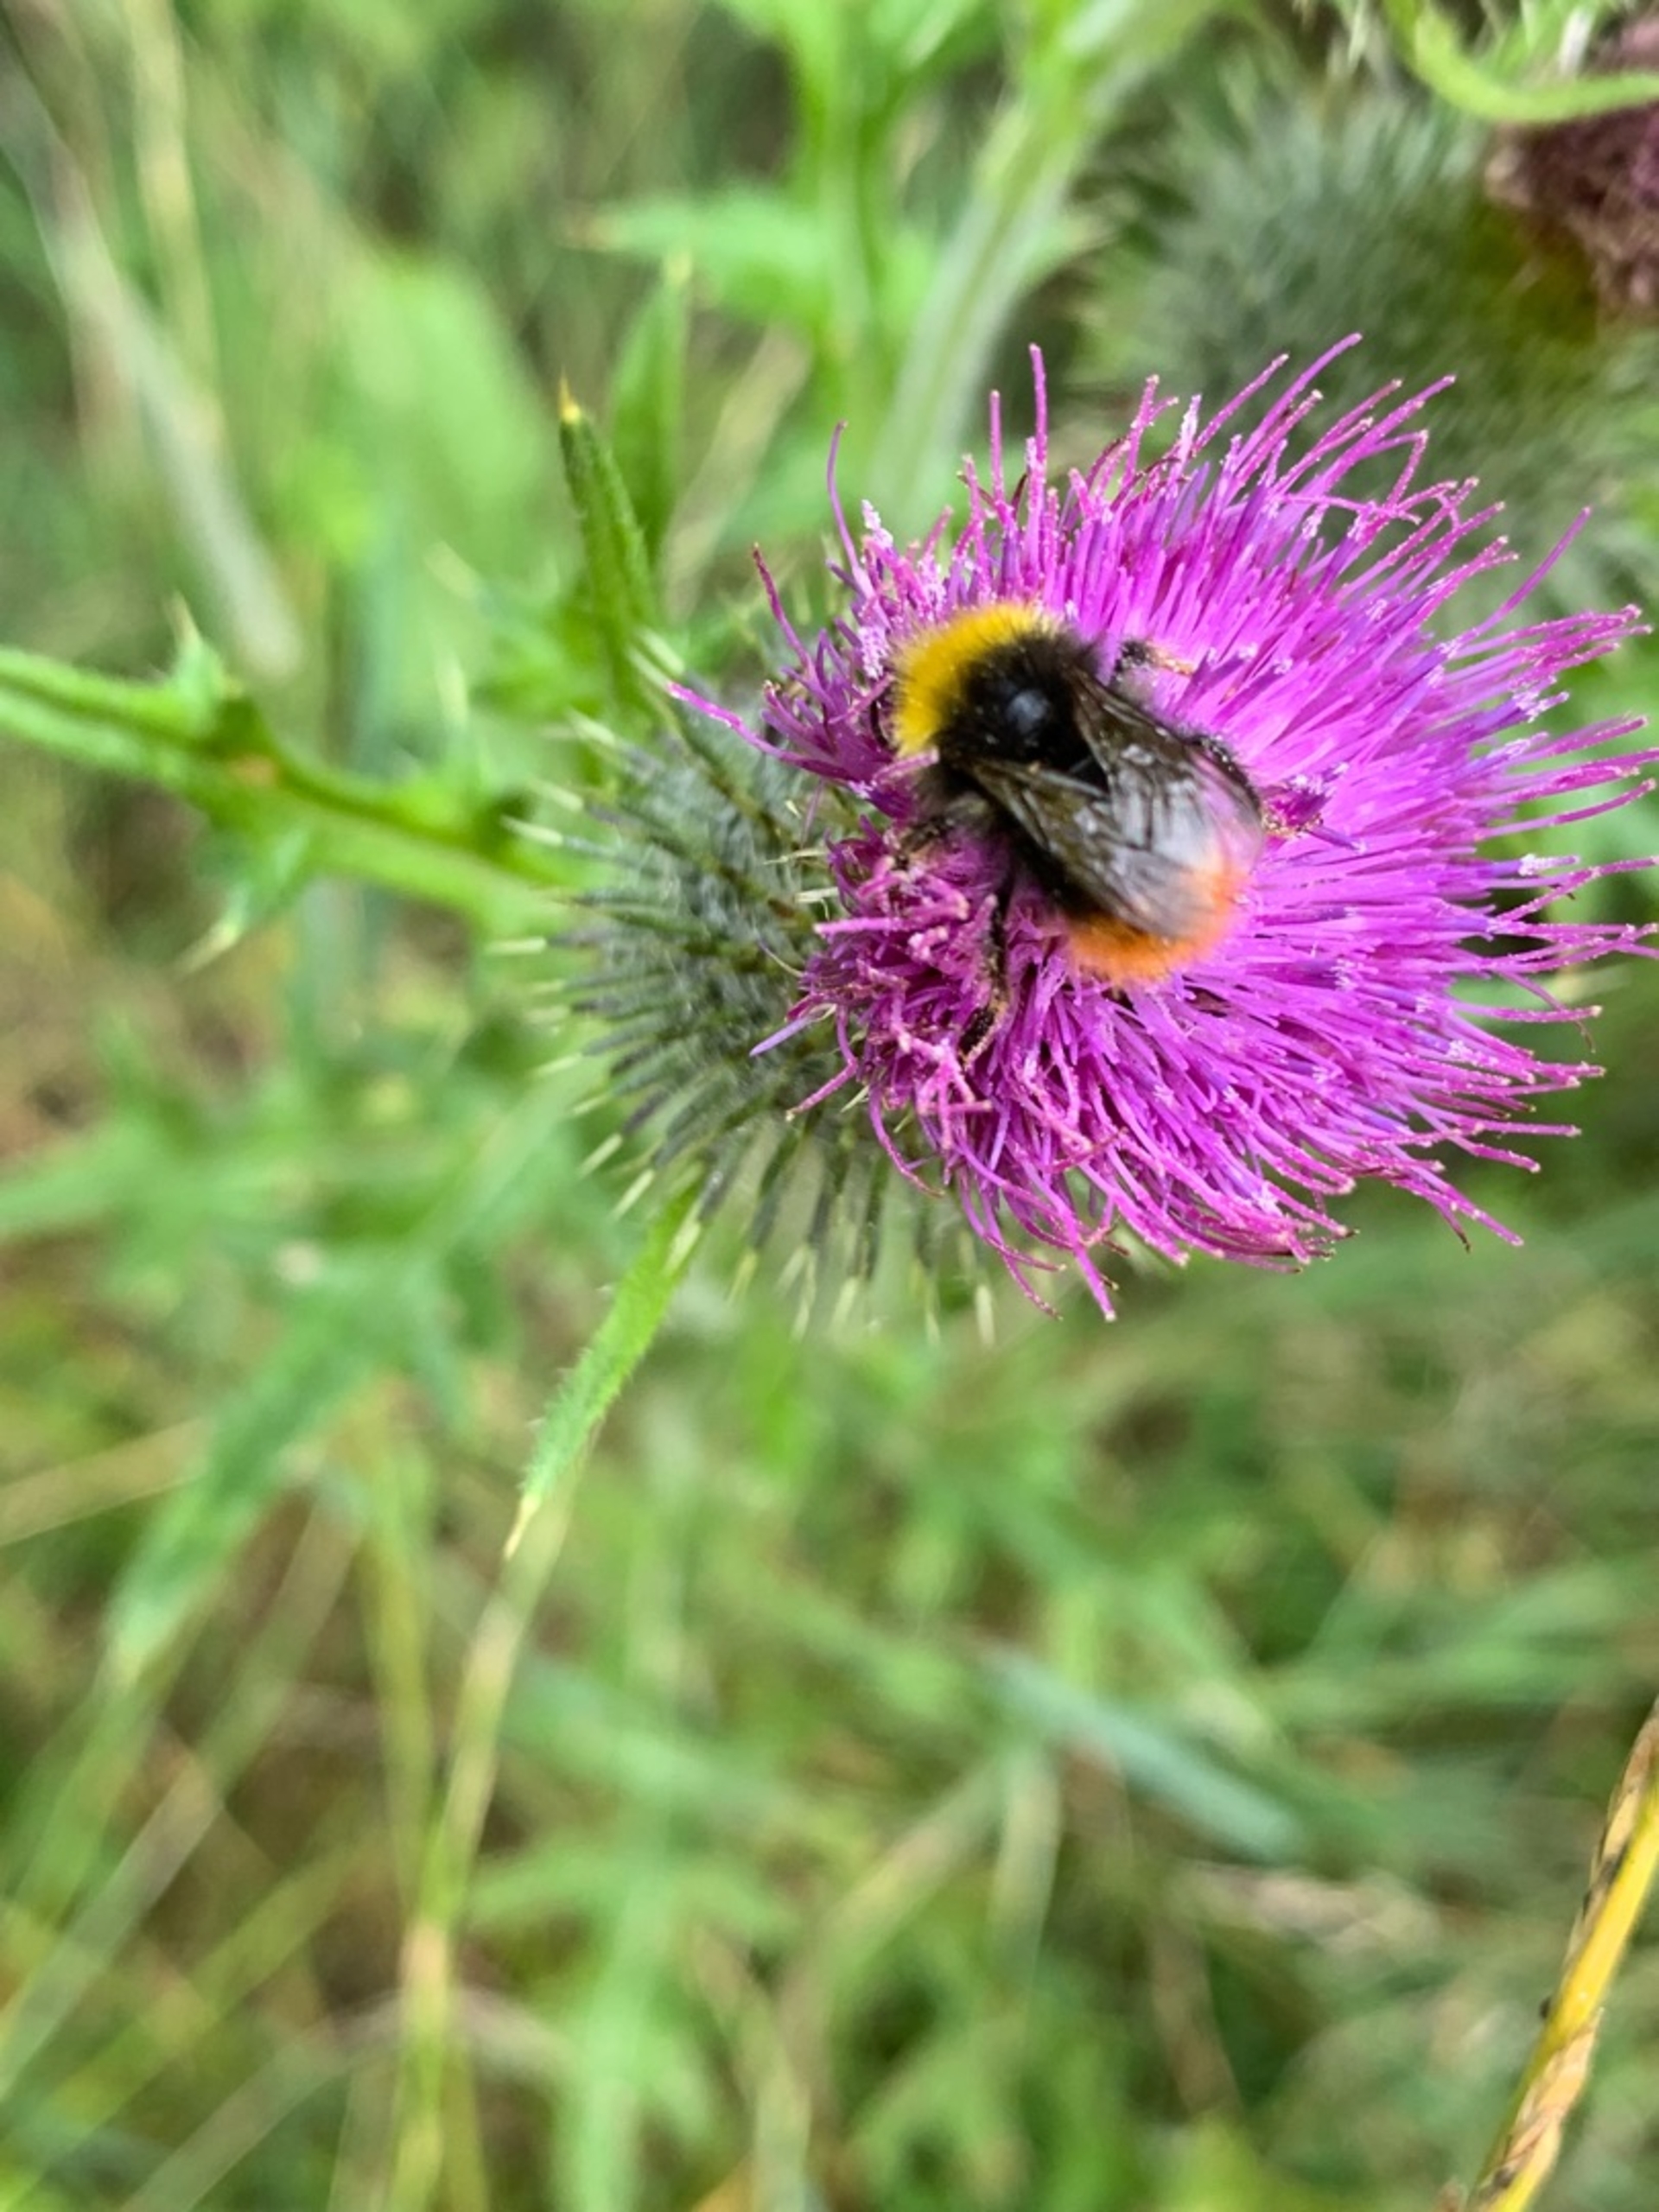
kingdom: Animalia
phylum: Arthropoda
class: Insecta
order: Hymenoptera
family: Apidae
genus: Bombus
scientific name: Bombus pratorum
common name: Lille skovhumle
